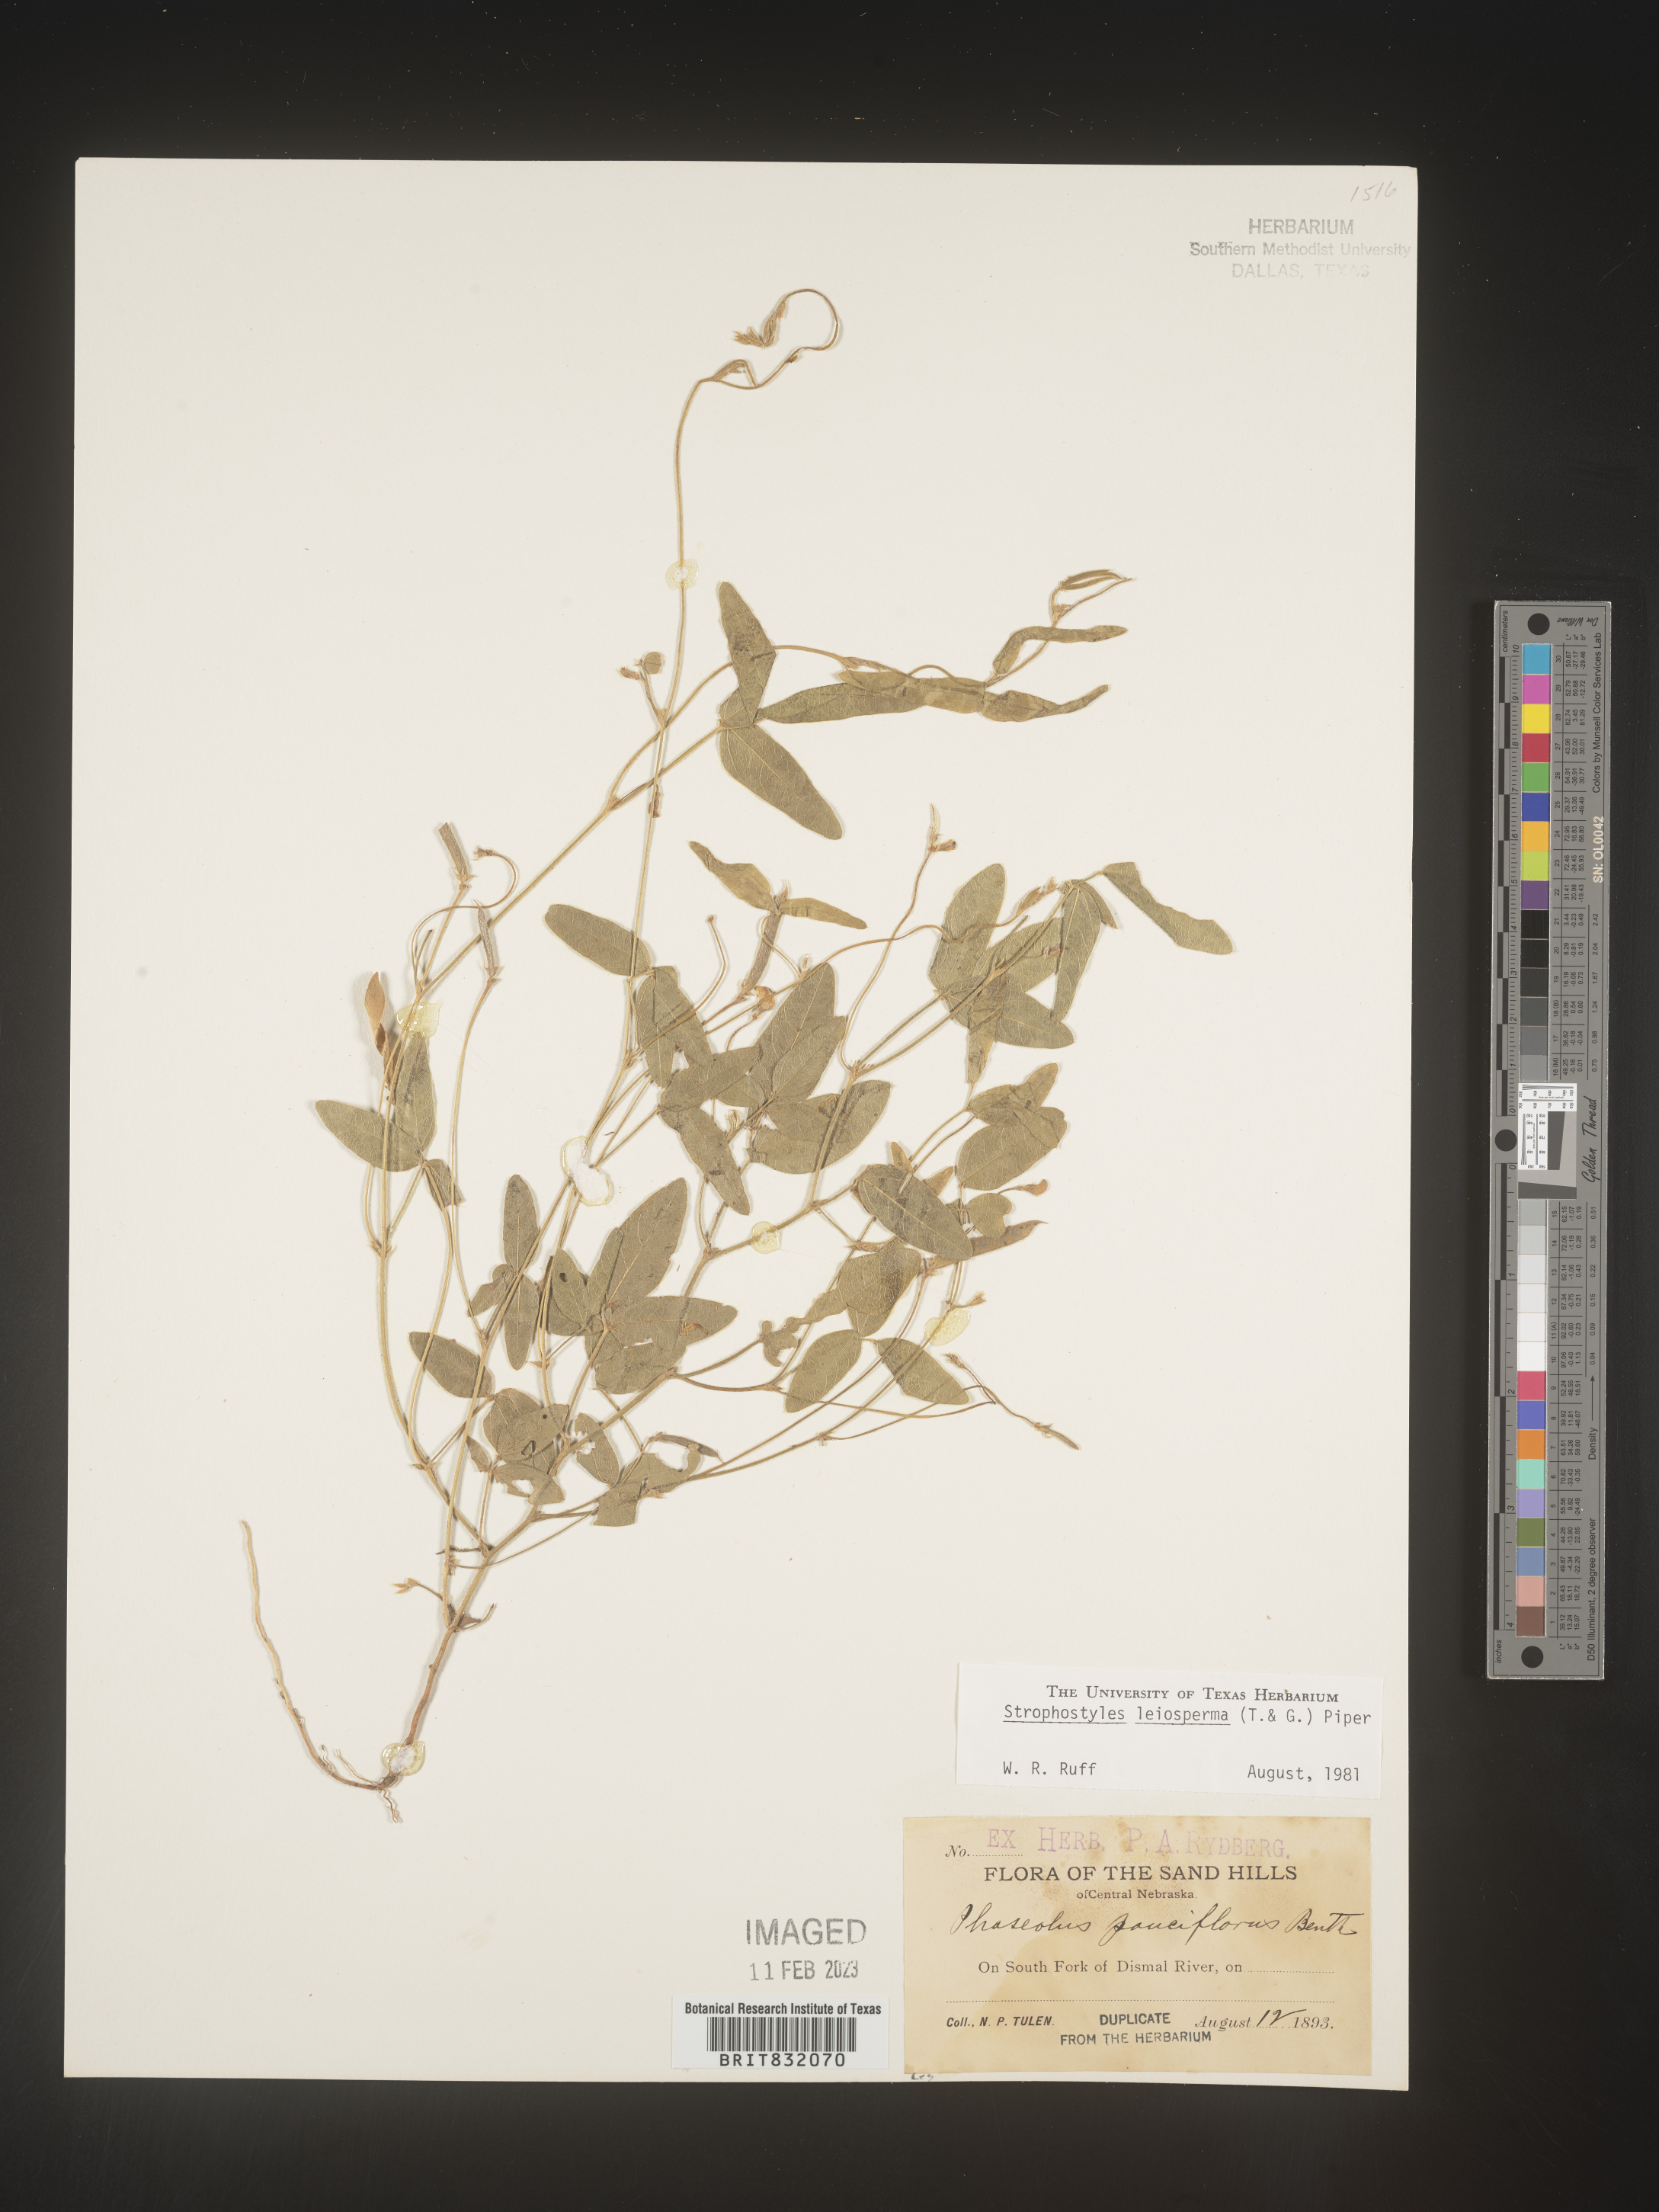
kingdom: Plantae
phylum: Tracheophyta
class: Magnoliopsida
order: Fabales
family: Fabaceae
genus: Strophostyles
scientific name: Strophostyles leiosperma
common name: Smooth-seed wild bean
